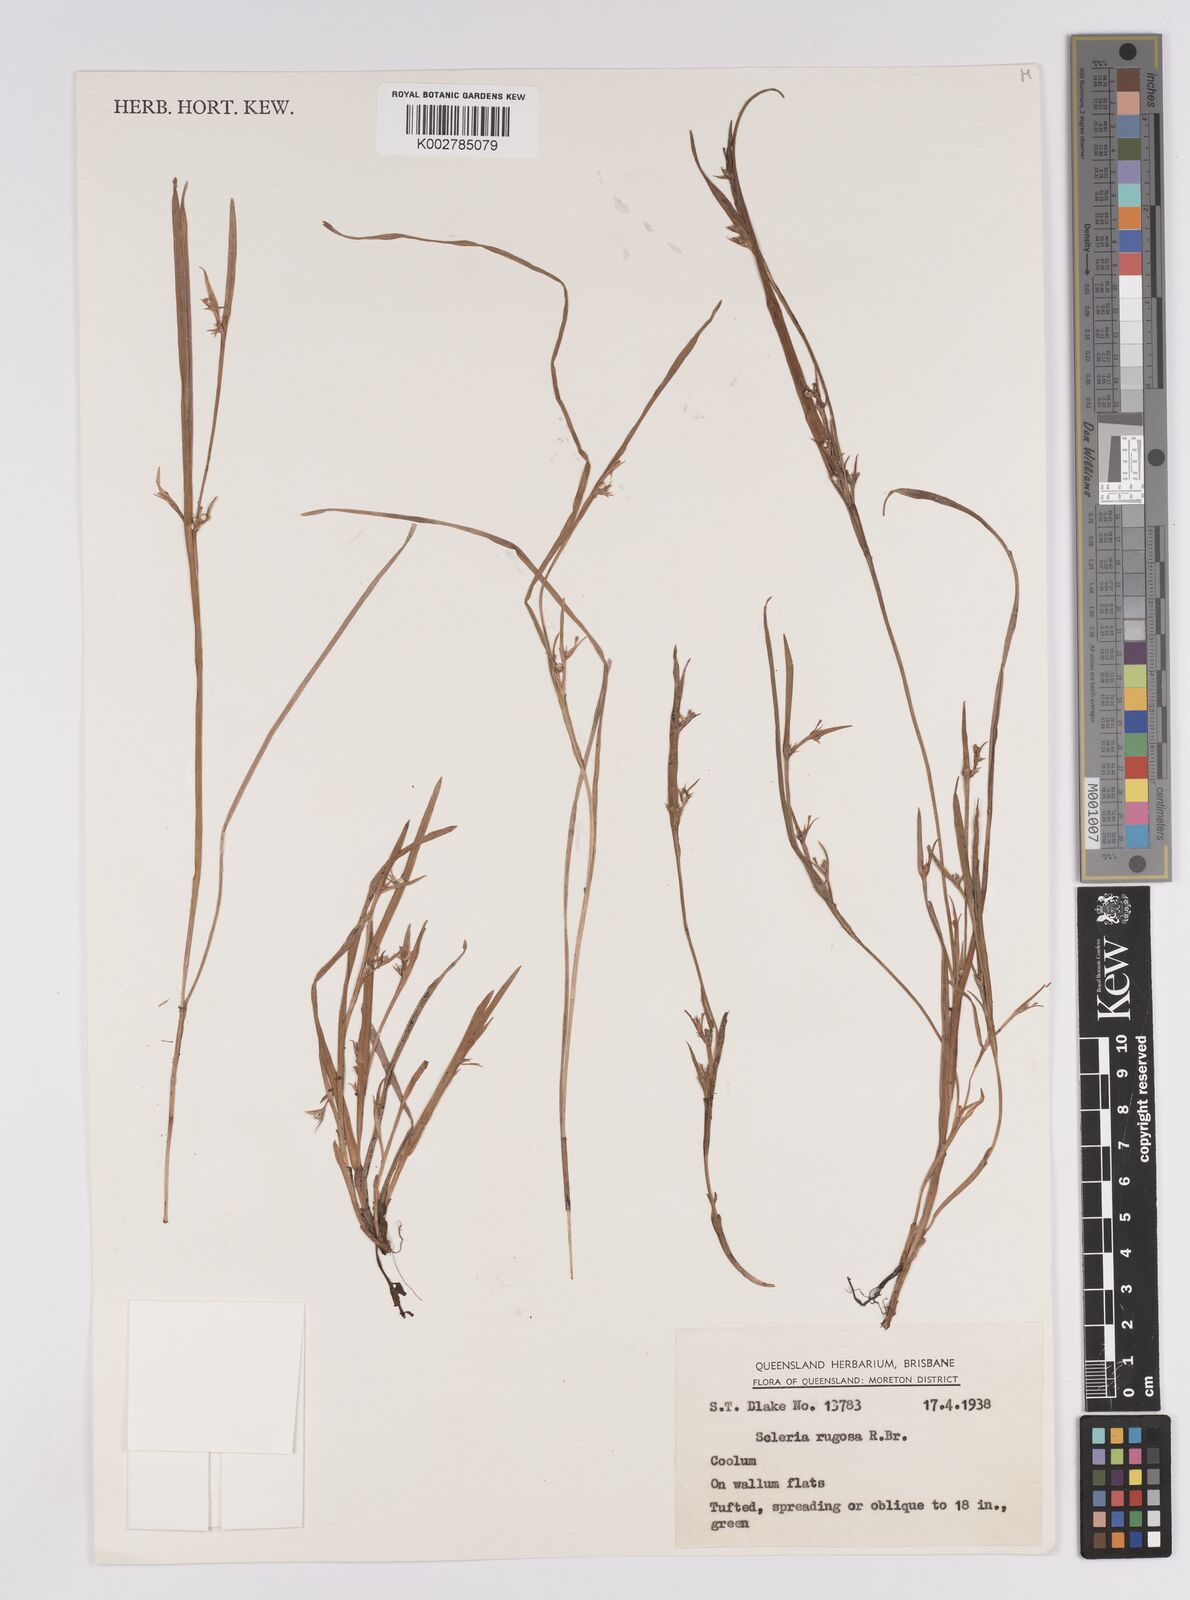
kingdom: Plantae
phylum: Tracheophyta
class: Liliopsida
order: Poales
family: Cyperaceae
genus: Scleria
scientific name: Scleria rugosa
